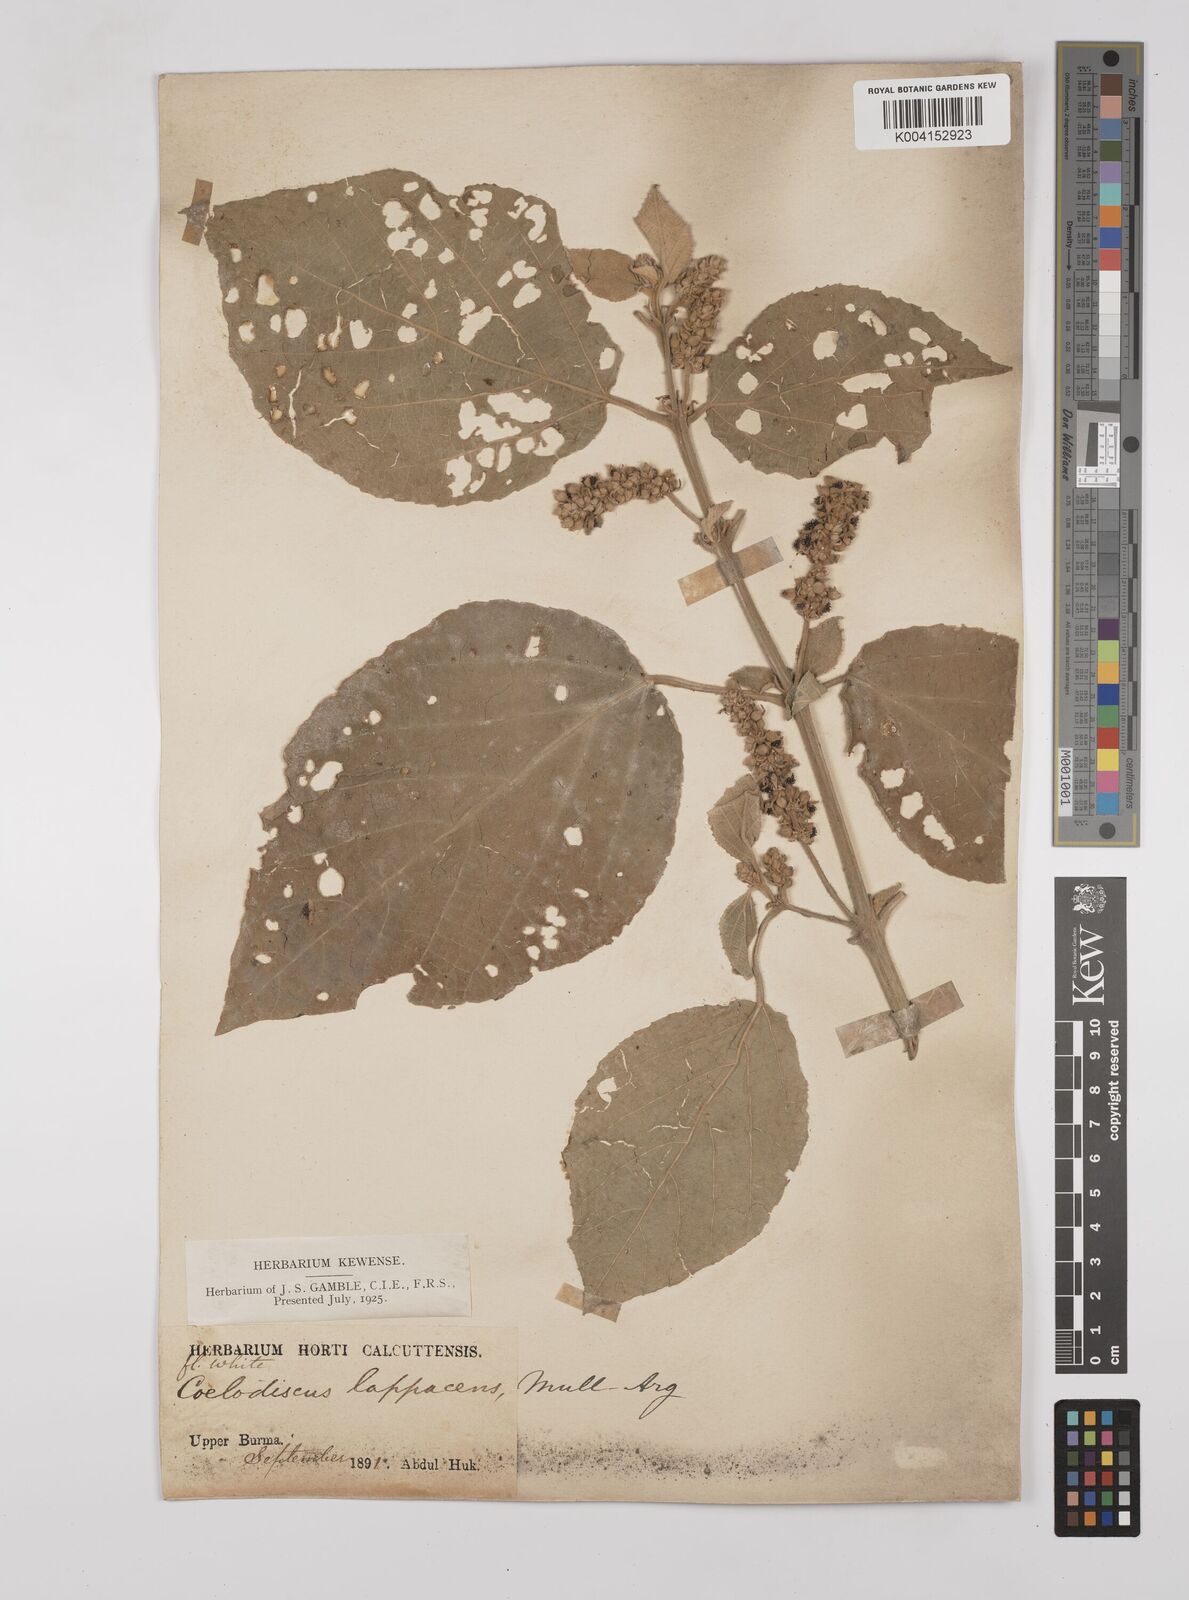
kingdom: Plantae
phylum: Tracheophyta
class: Magnoliopsida
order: Malpighiales
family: Euphorbiaceae
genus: Mallotus
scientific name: Mallotus lappaceus
